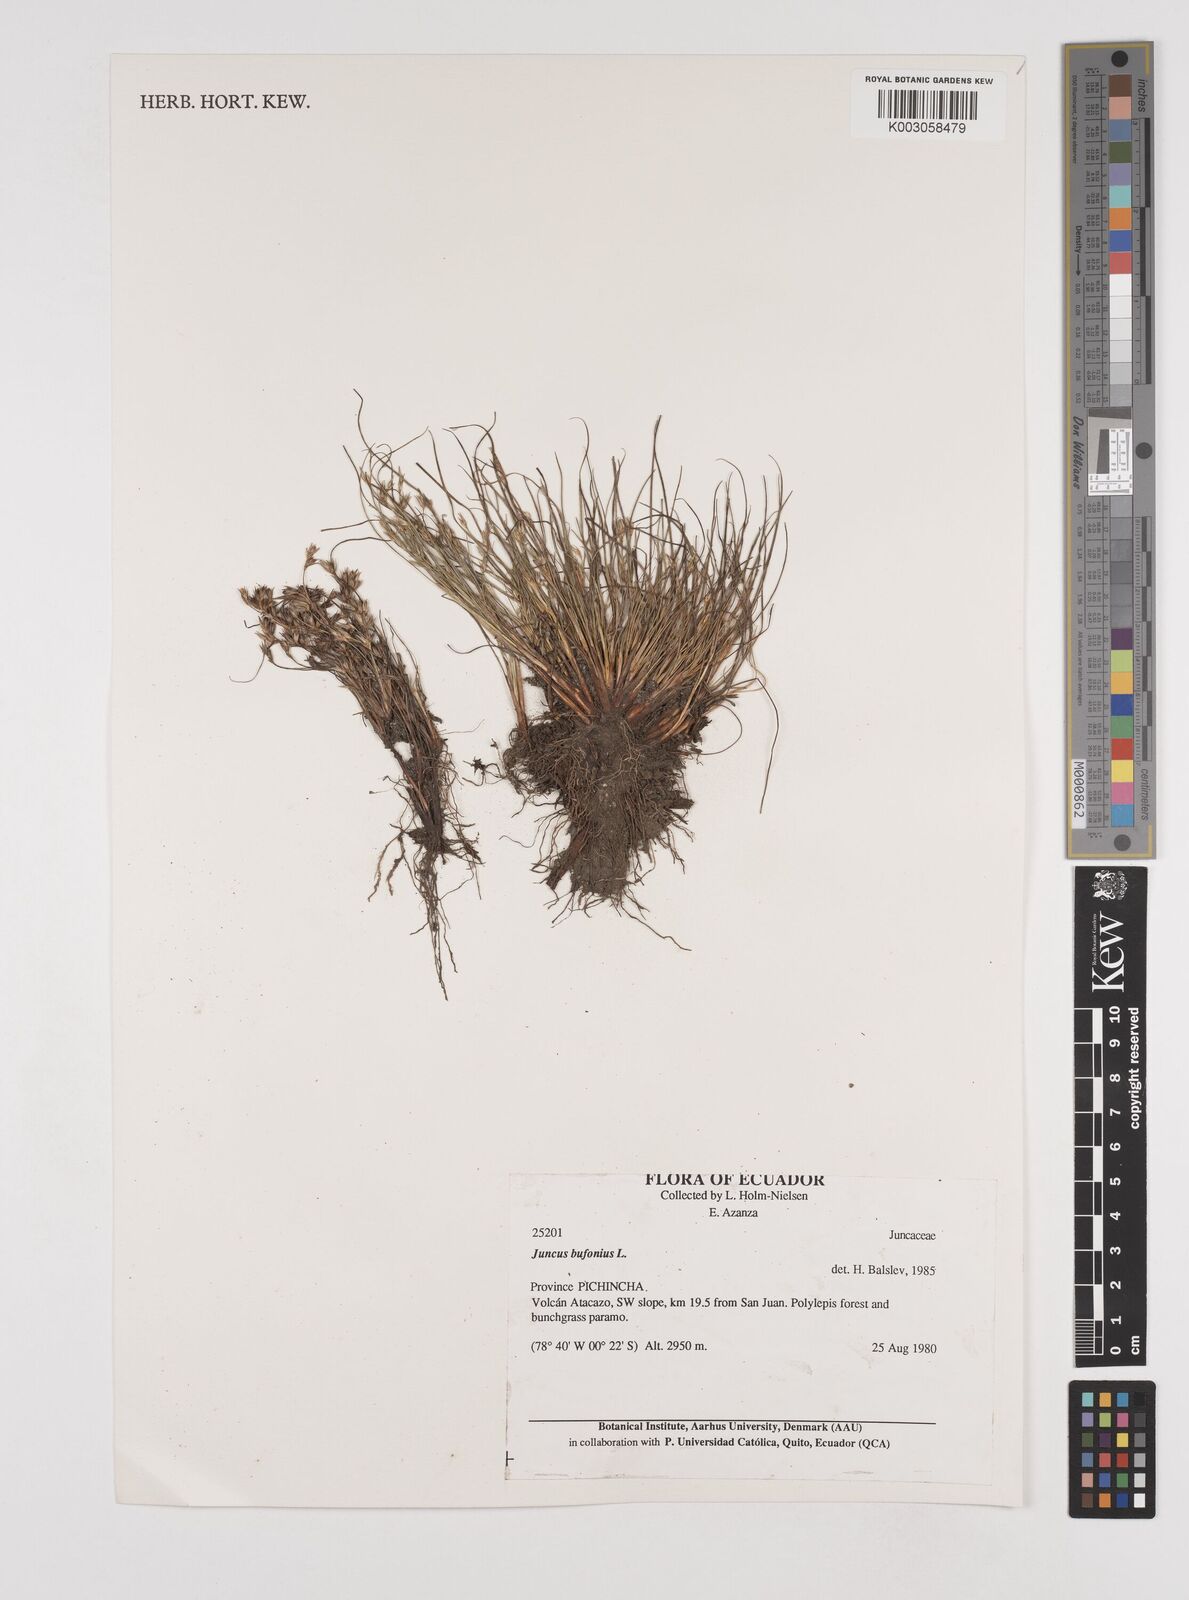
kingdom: Plantae
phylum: Tracheophyta
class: Liliopsida
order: Poales
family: Juncaceae
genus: Juncus
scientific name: Juncus bufonius
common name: Toad rush
